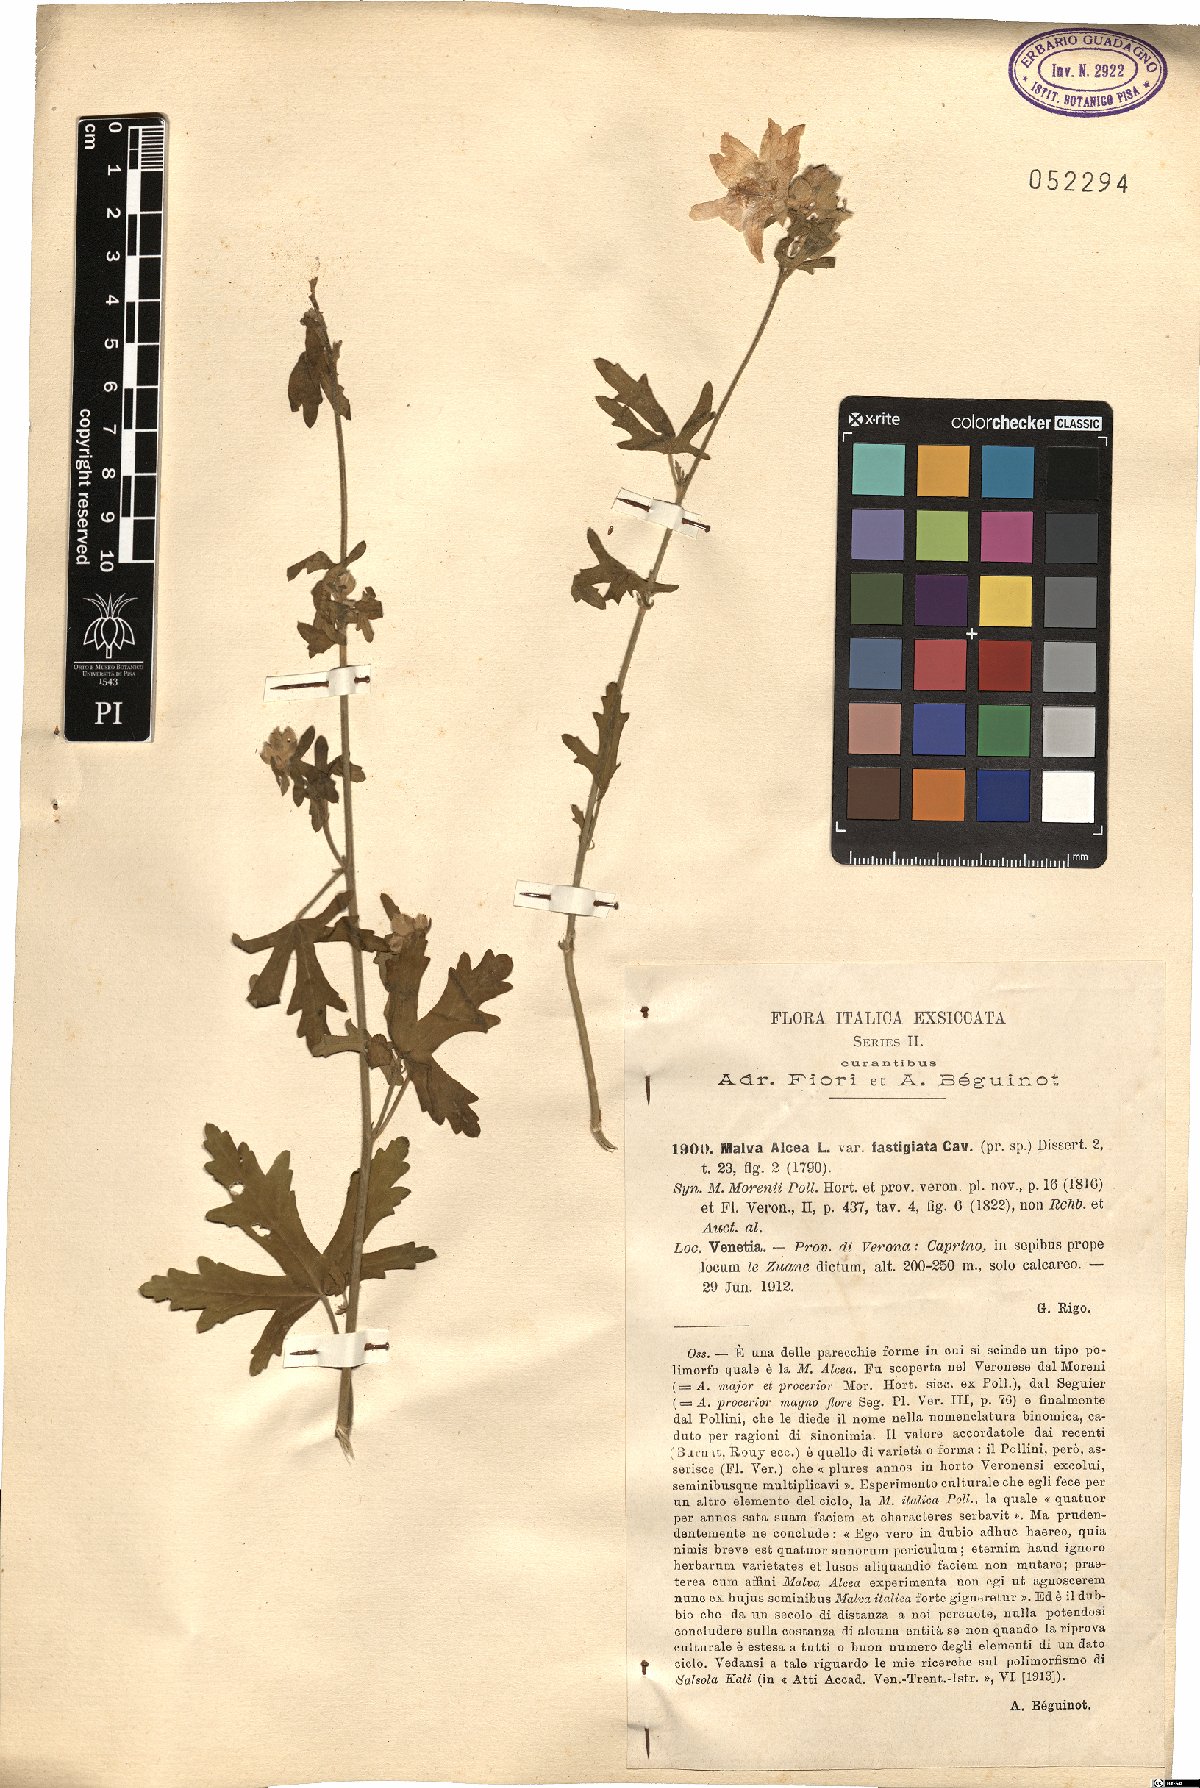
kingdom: Plantae
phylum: Tracheophyta
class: Magnoliopsida
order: Malvales
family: Malvaceae
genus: Malva
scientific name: Malva alcea
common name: Greater musk-mallow
